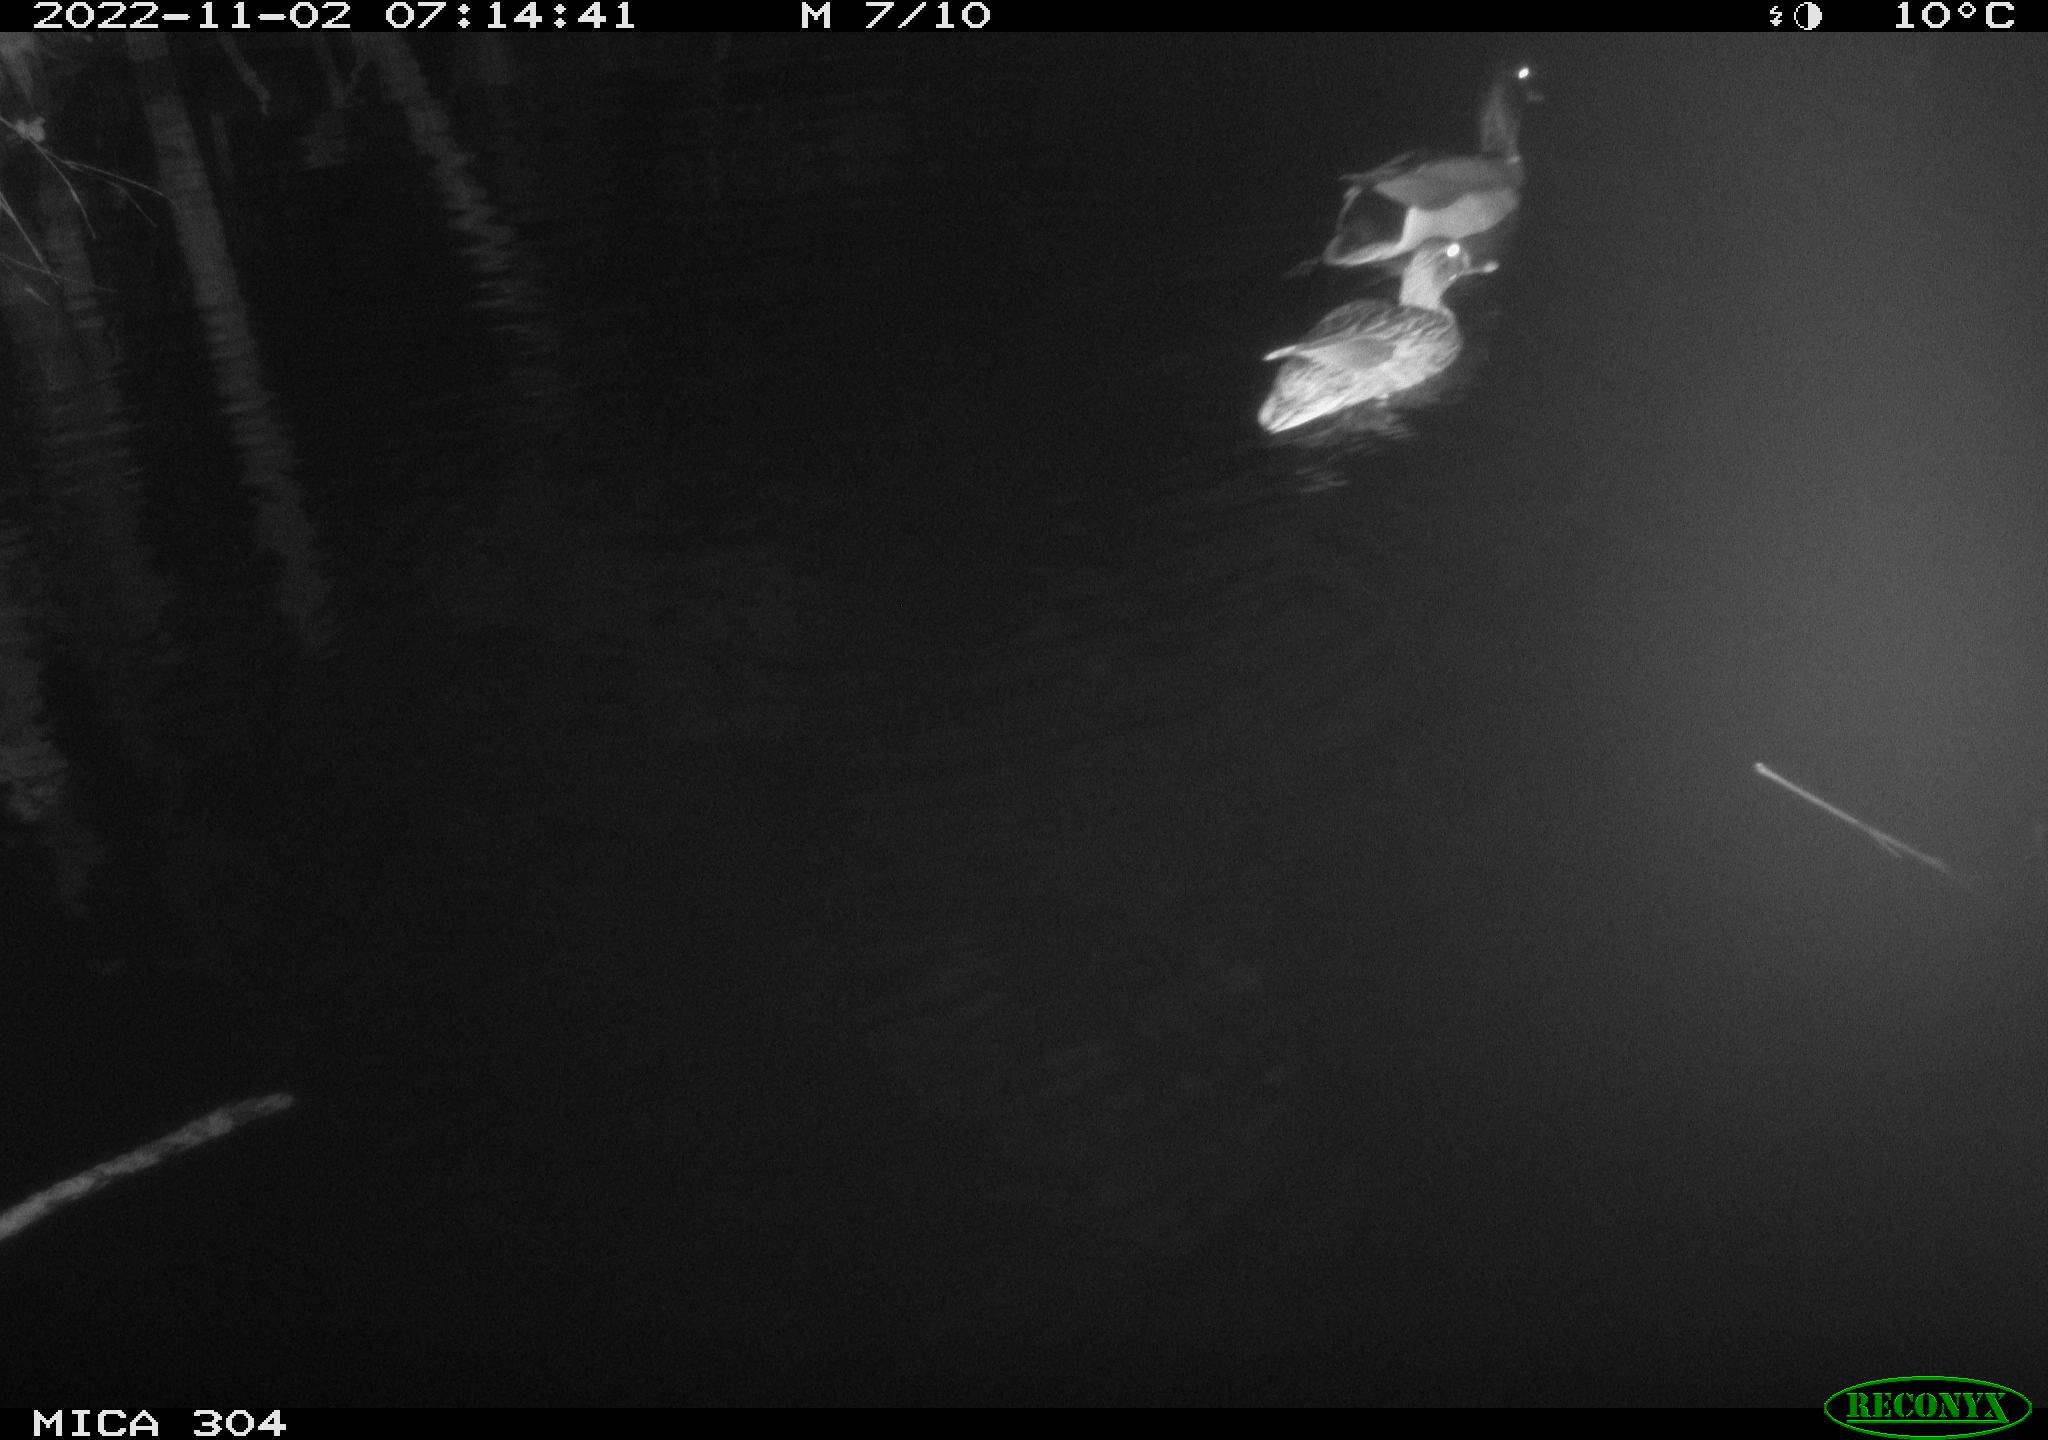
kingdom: Animalia
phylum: Chordata
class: Aves
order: Anseriformes
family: Anatidae
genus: Anas
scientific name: Anas
